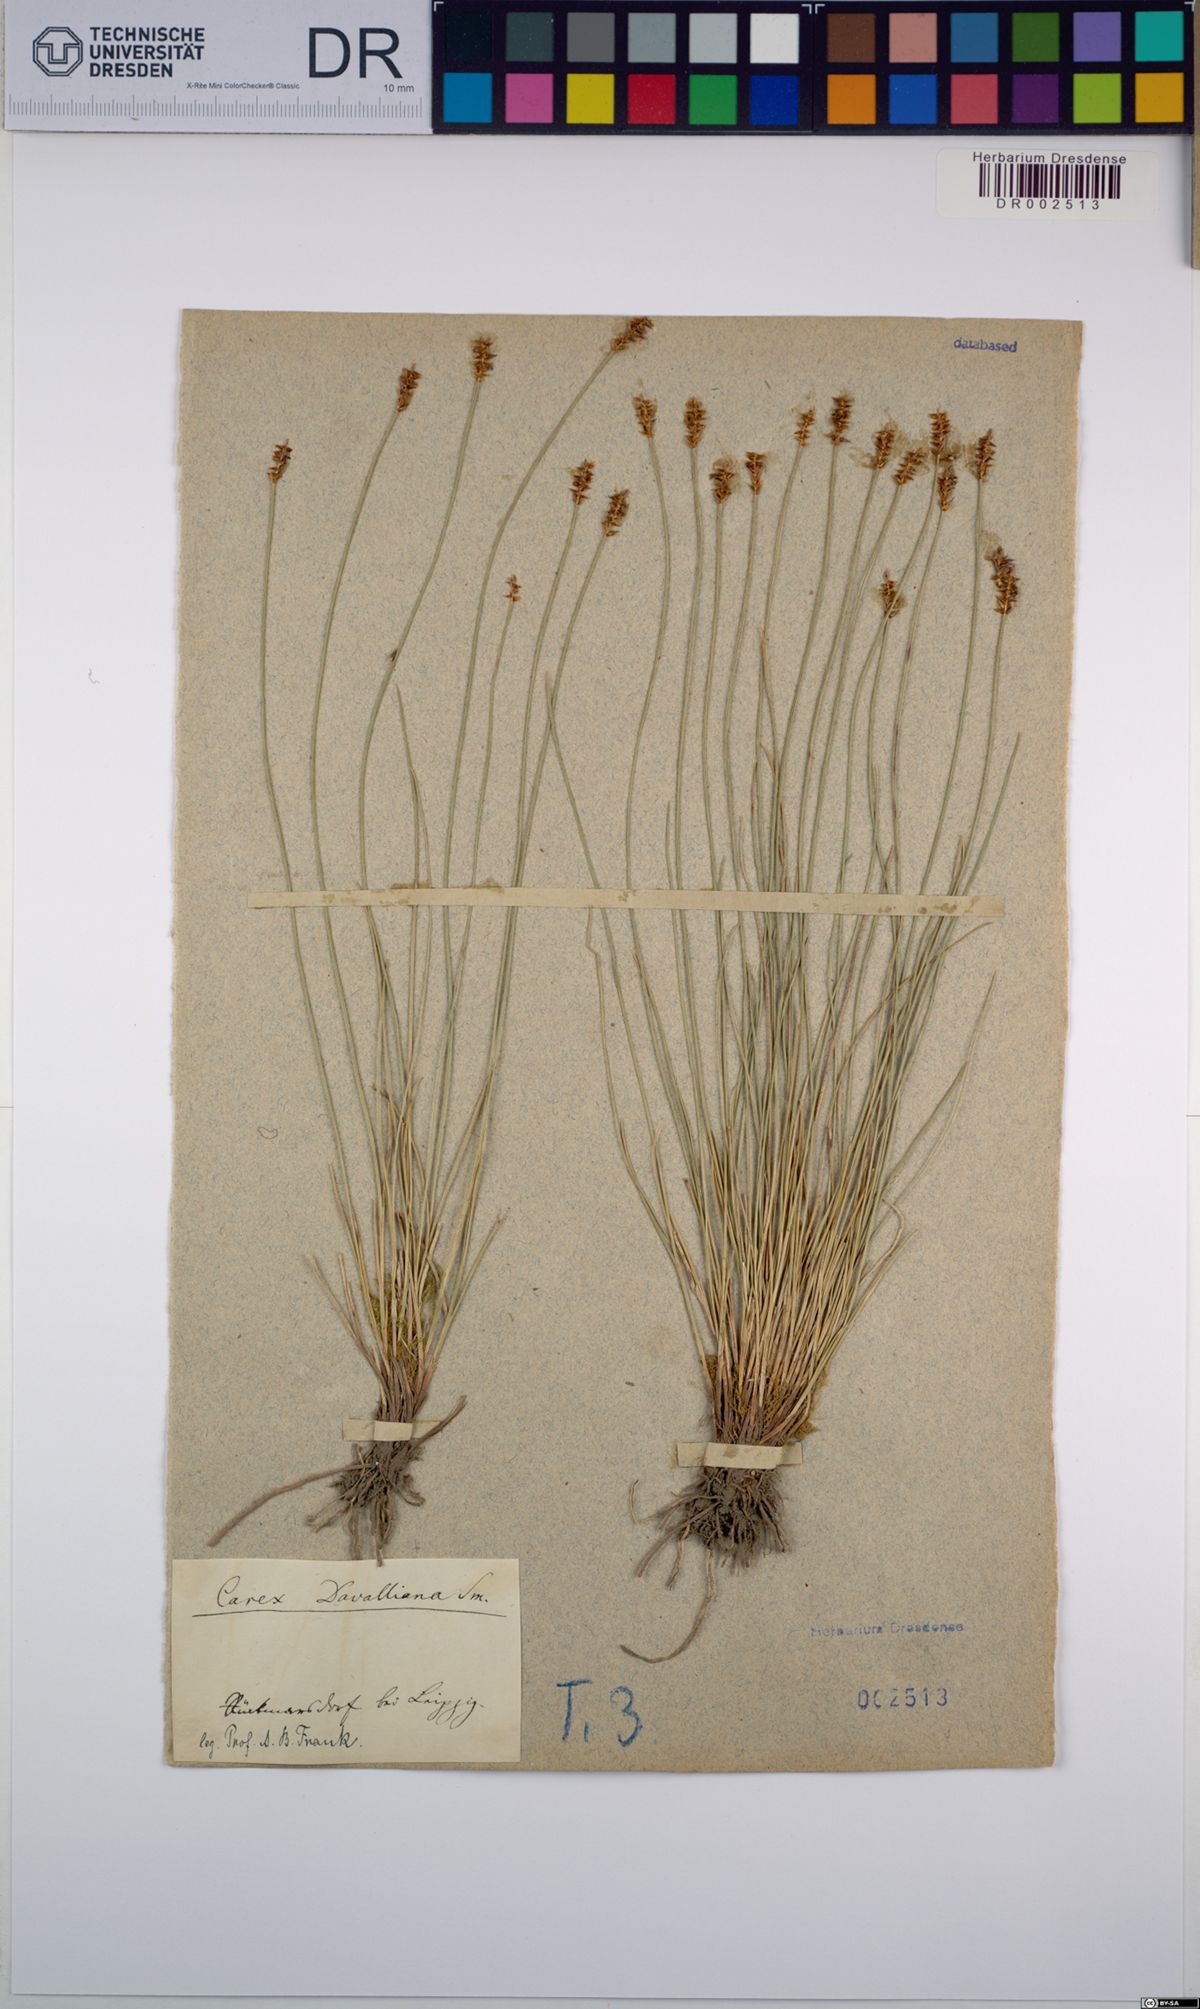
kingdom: Plantae
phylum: Tracheophyta
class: Liliopsida
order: Poales
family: Cyperaceae
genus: Carex
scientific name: Carex davalliana
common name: Davall's sedge
